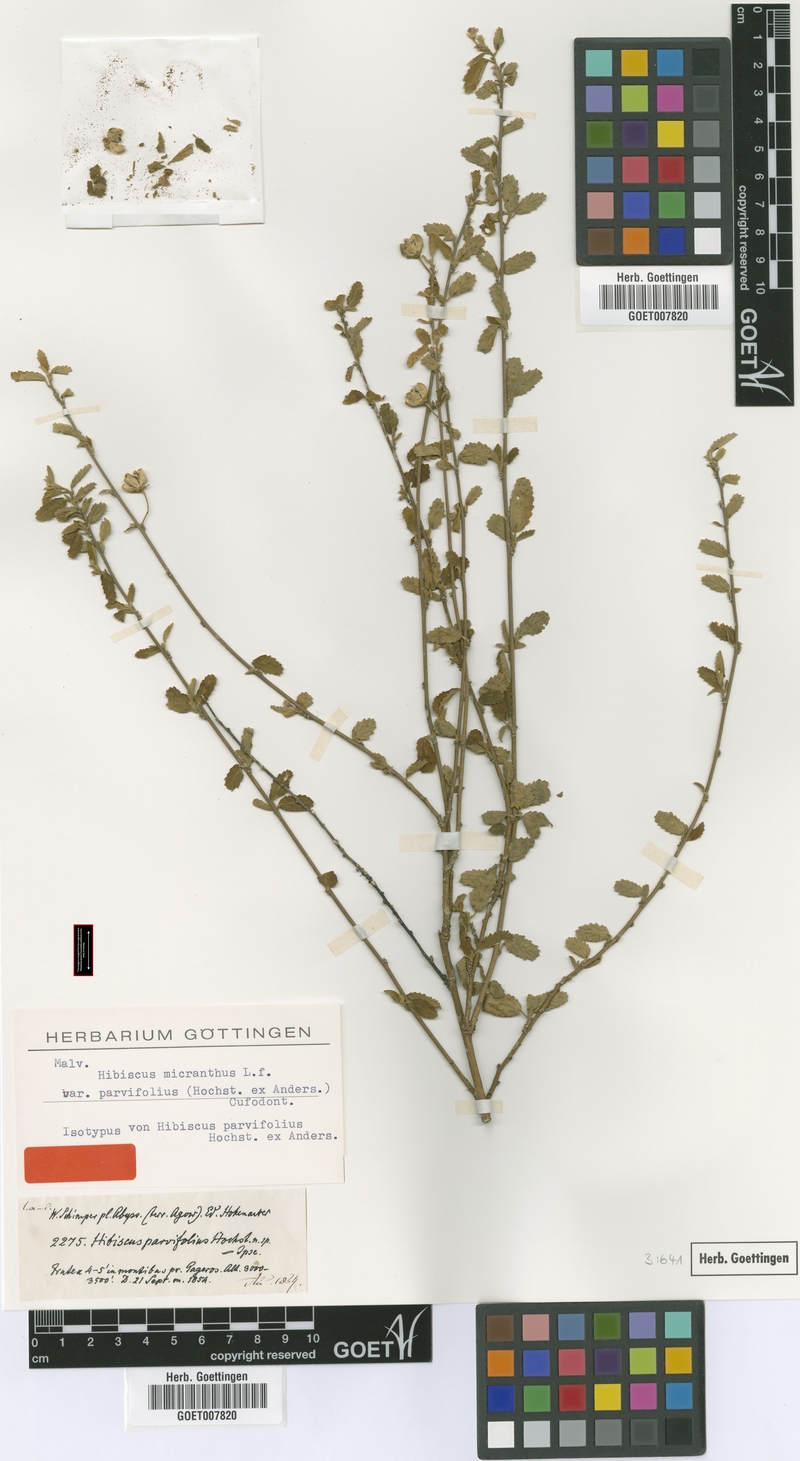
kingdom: Plantae
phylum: Tracheophyta
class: Magnoliopsida
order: Malvales
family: Malvaceae
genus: Hibiscus
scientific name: Hibiscus micranthus
